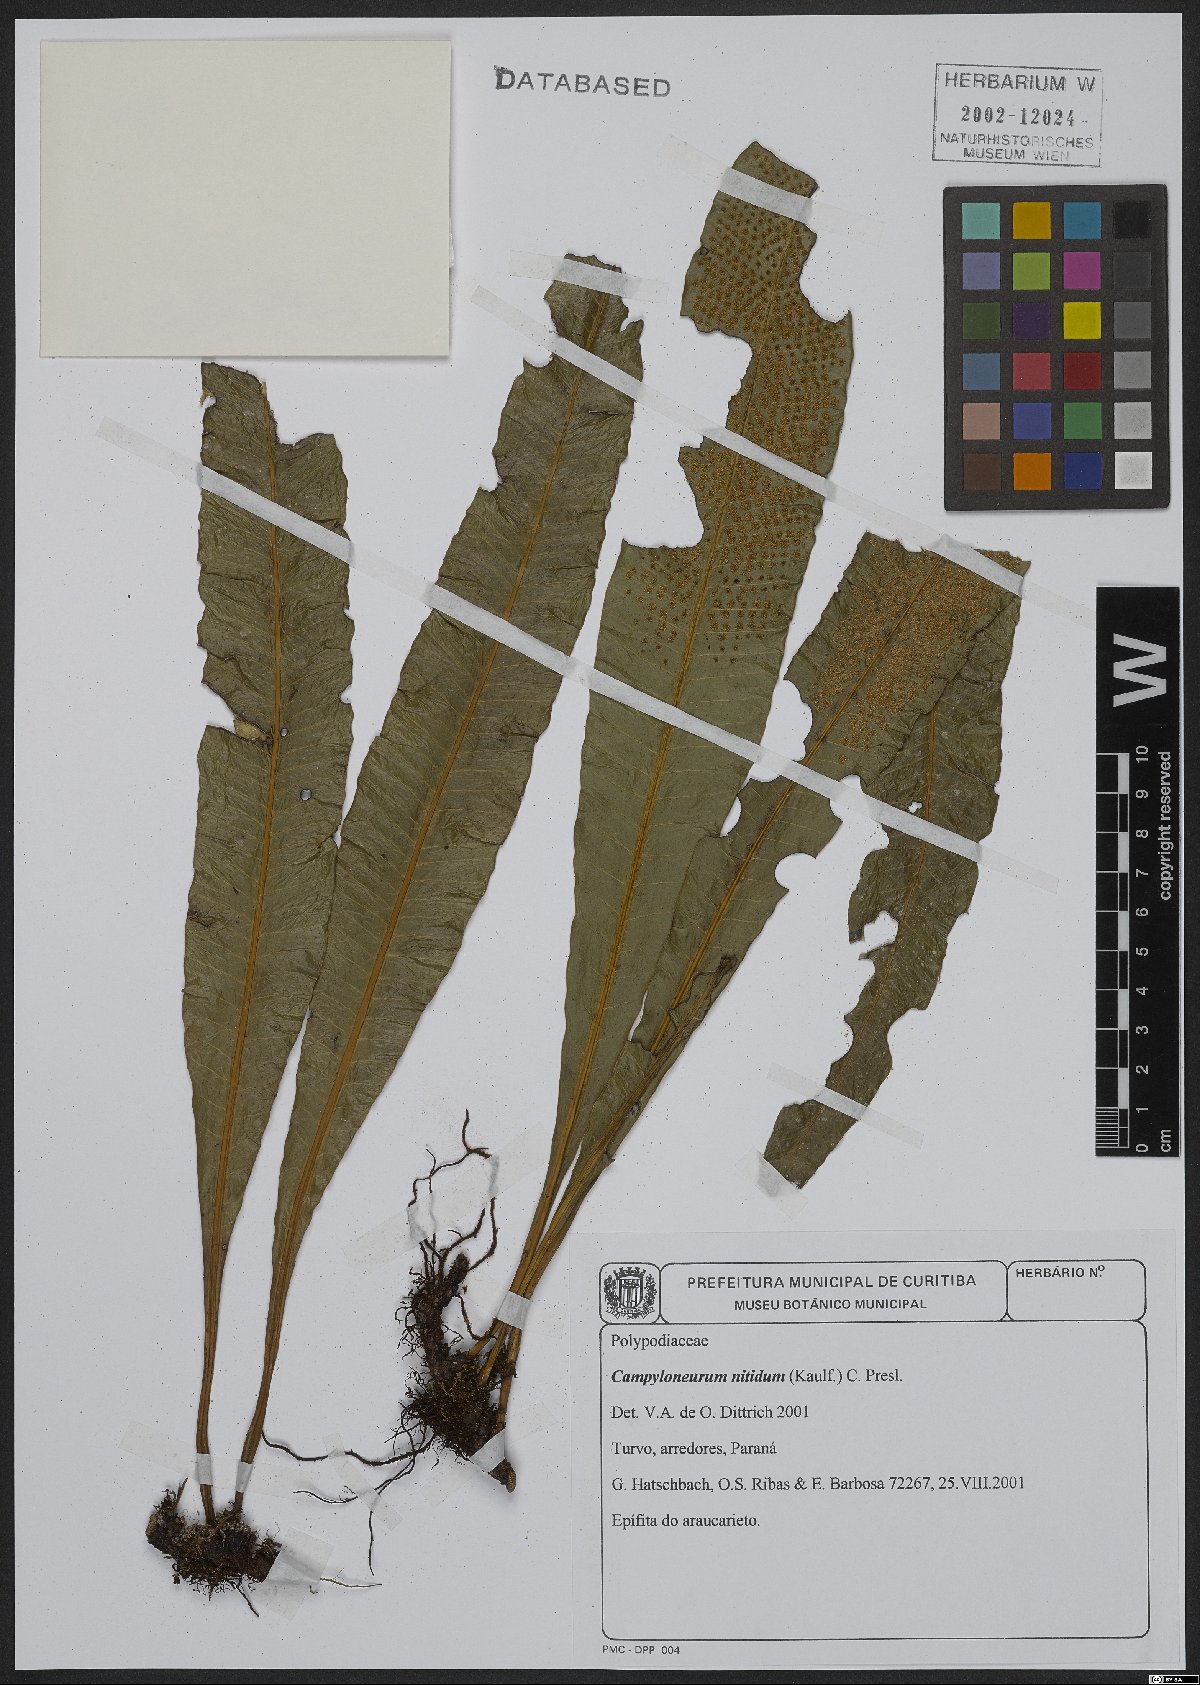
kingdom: Plantae
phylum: Tracheophyta
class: Polypodiopsida
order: Polypodiales
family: Polypodiaceae
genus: Campyloneurum
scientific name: Campyloneurum nitidum
